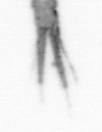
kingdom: Animalia
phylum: Arthropoda
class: Copepoda
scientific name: Copepoda
